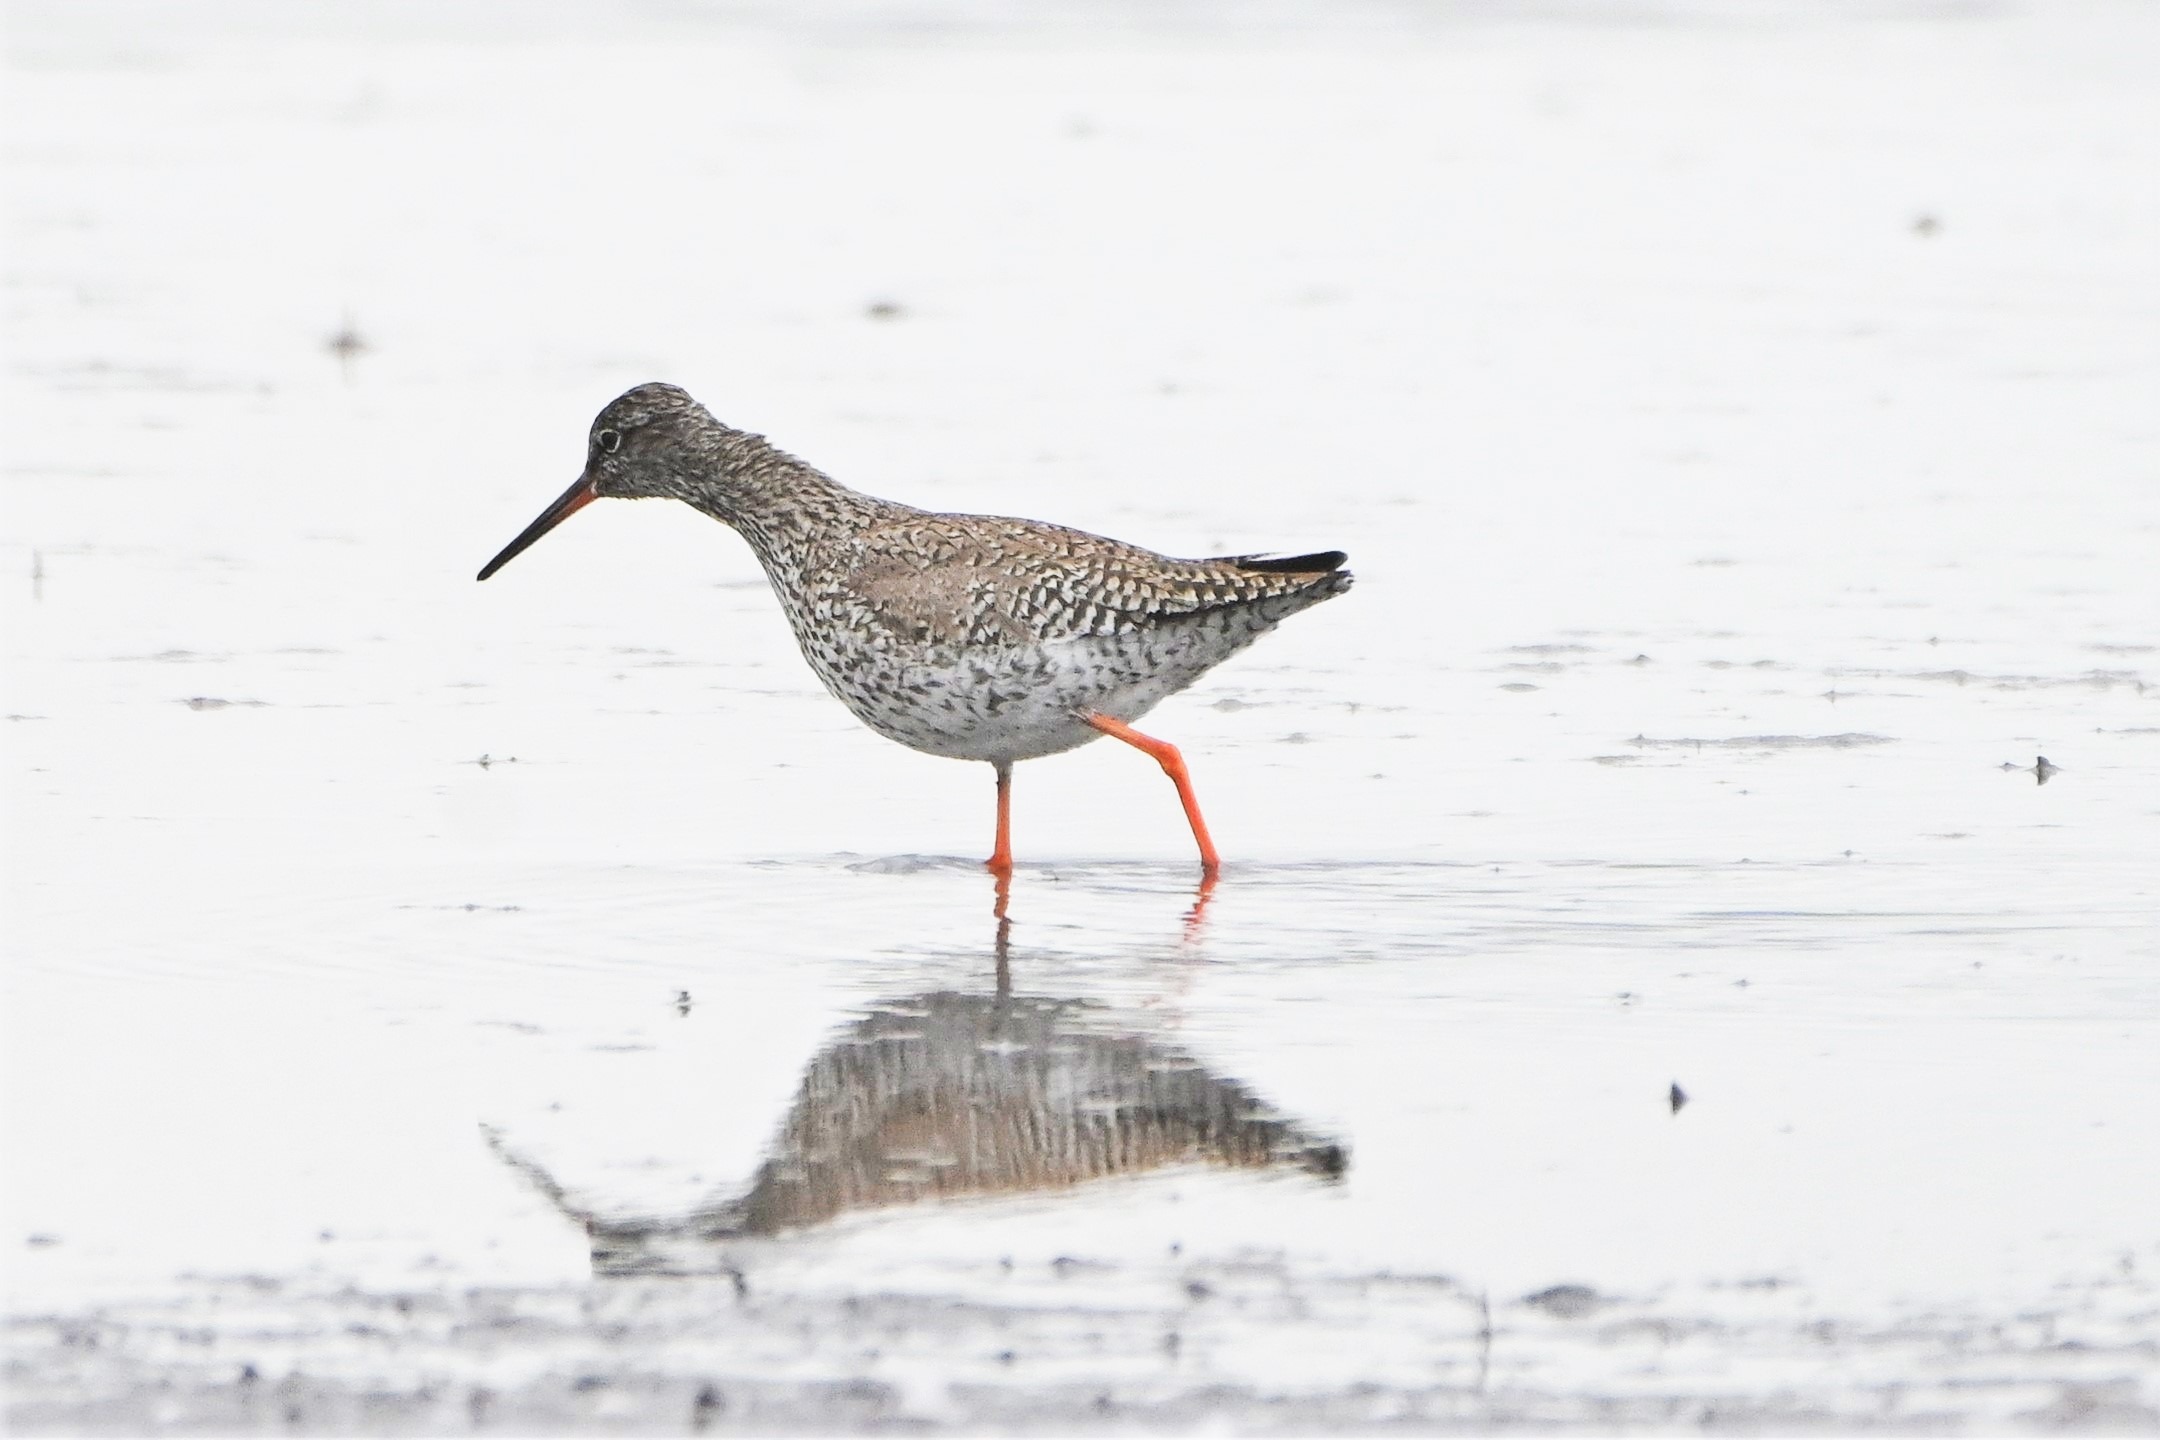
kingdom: Animalia
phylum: Chordata
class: Aves
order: Charadriiformes
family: Scolopacidae
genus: Tringa
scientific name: Tringa totanus
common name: Rødben
